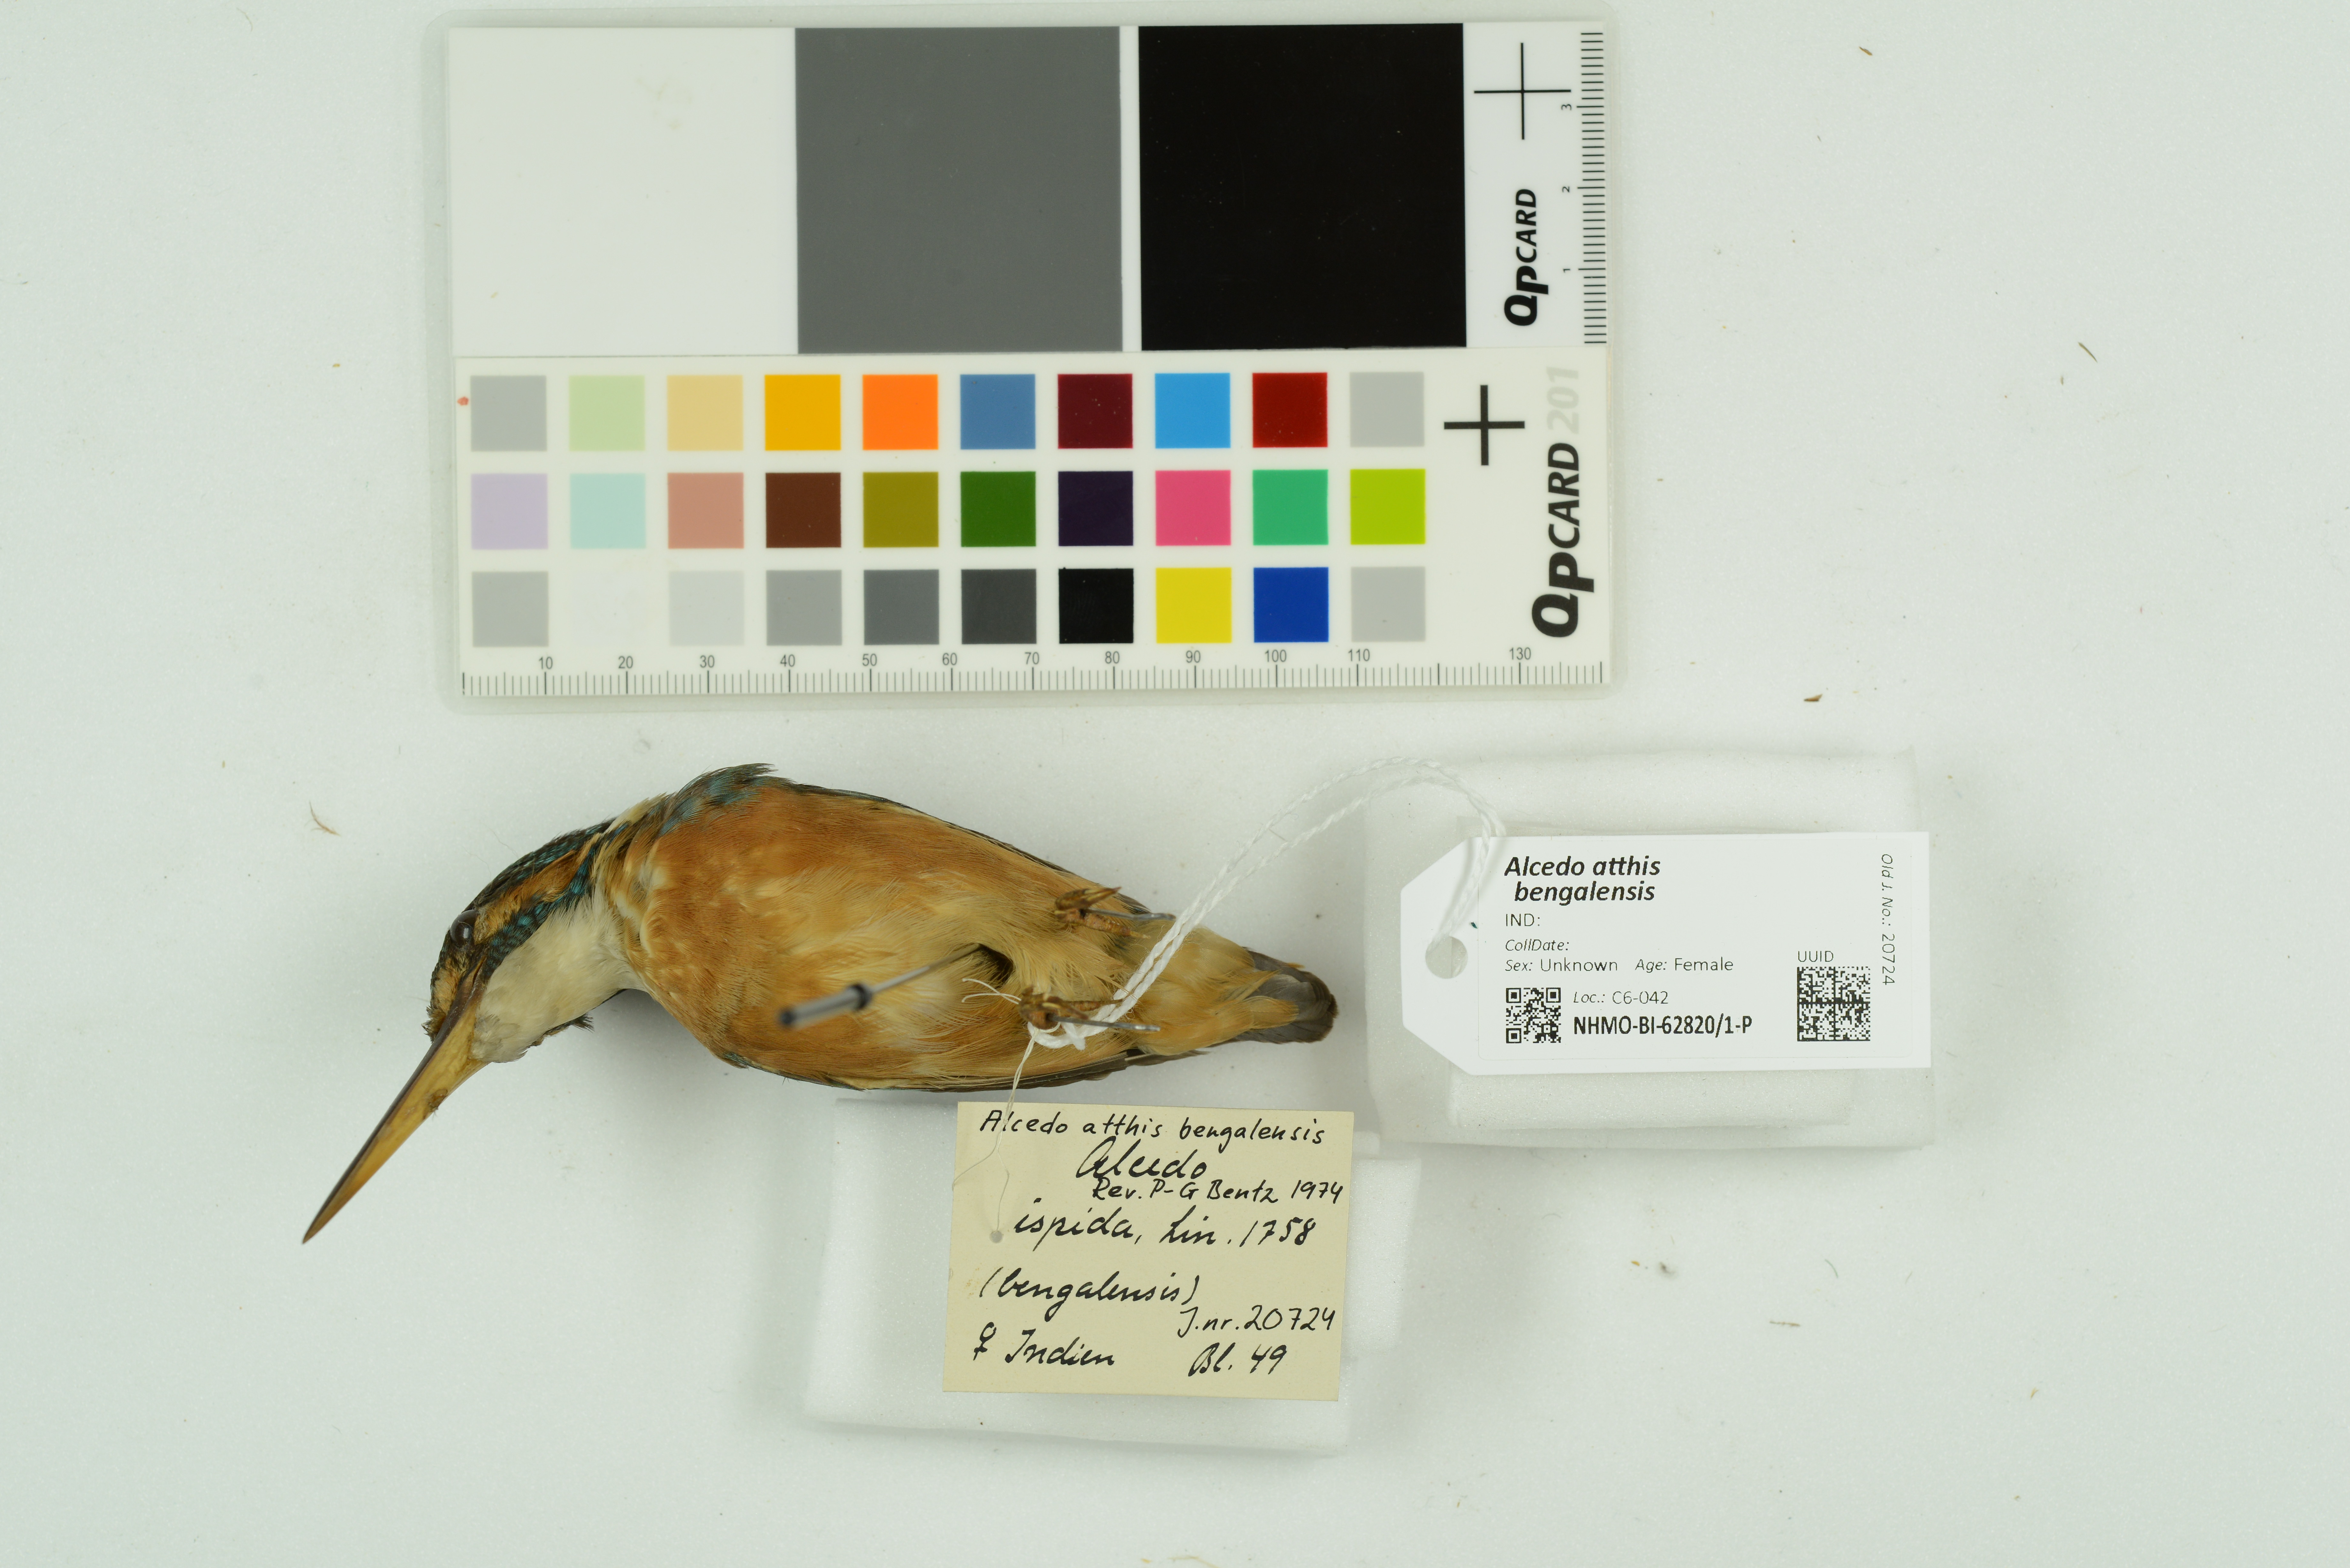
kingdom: Animalia
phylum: Chordata
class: Aves
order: Coraciiformes
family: Alcedinidae
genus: Alcedo
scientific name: Alcedo atthis
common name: Common kingfisher
